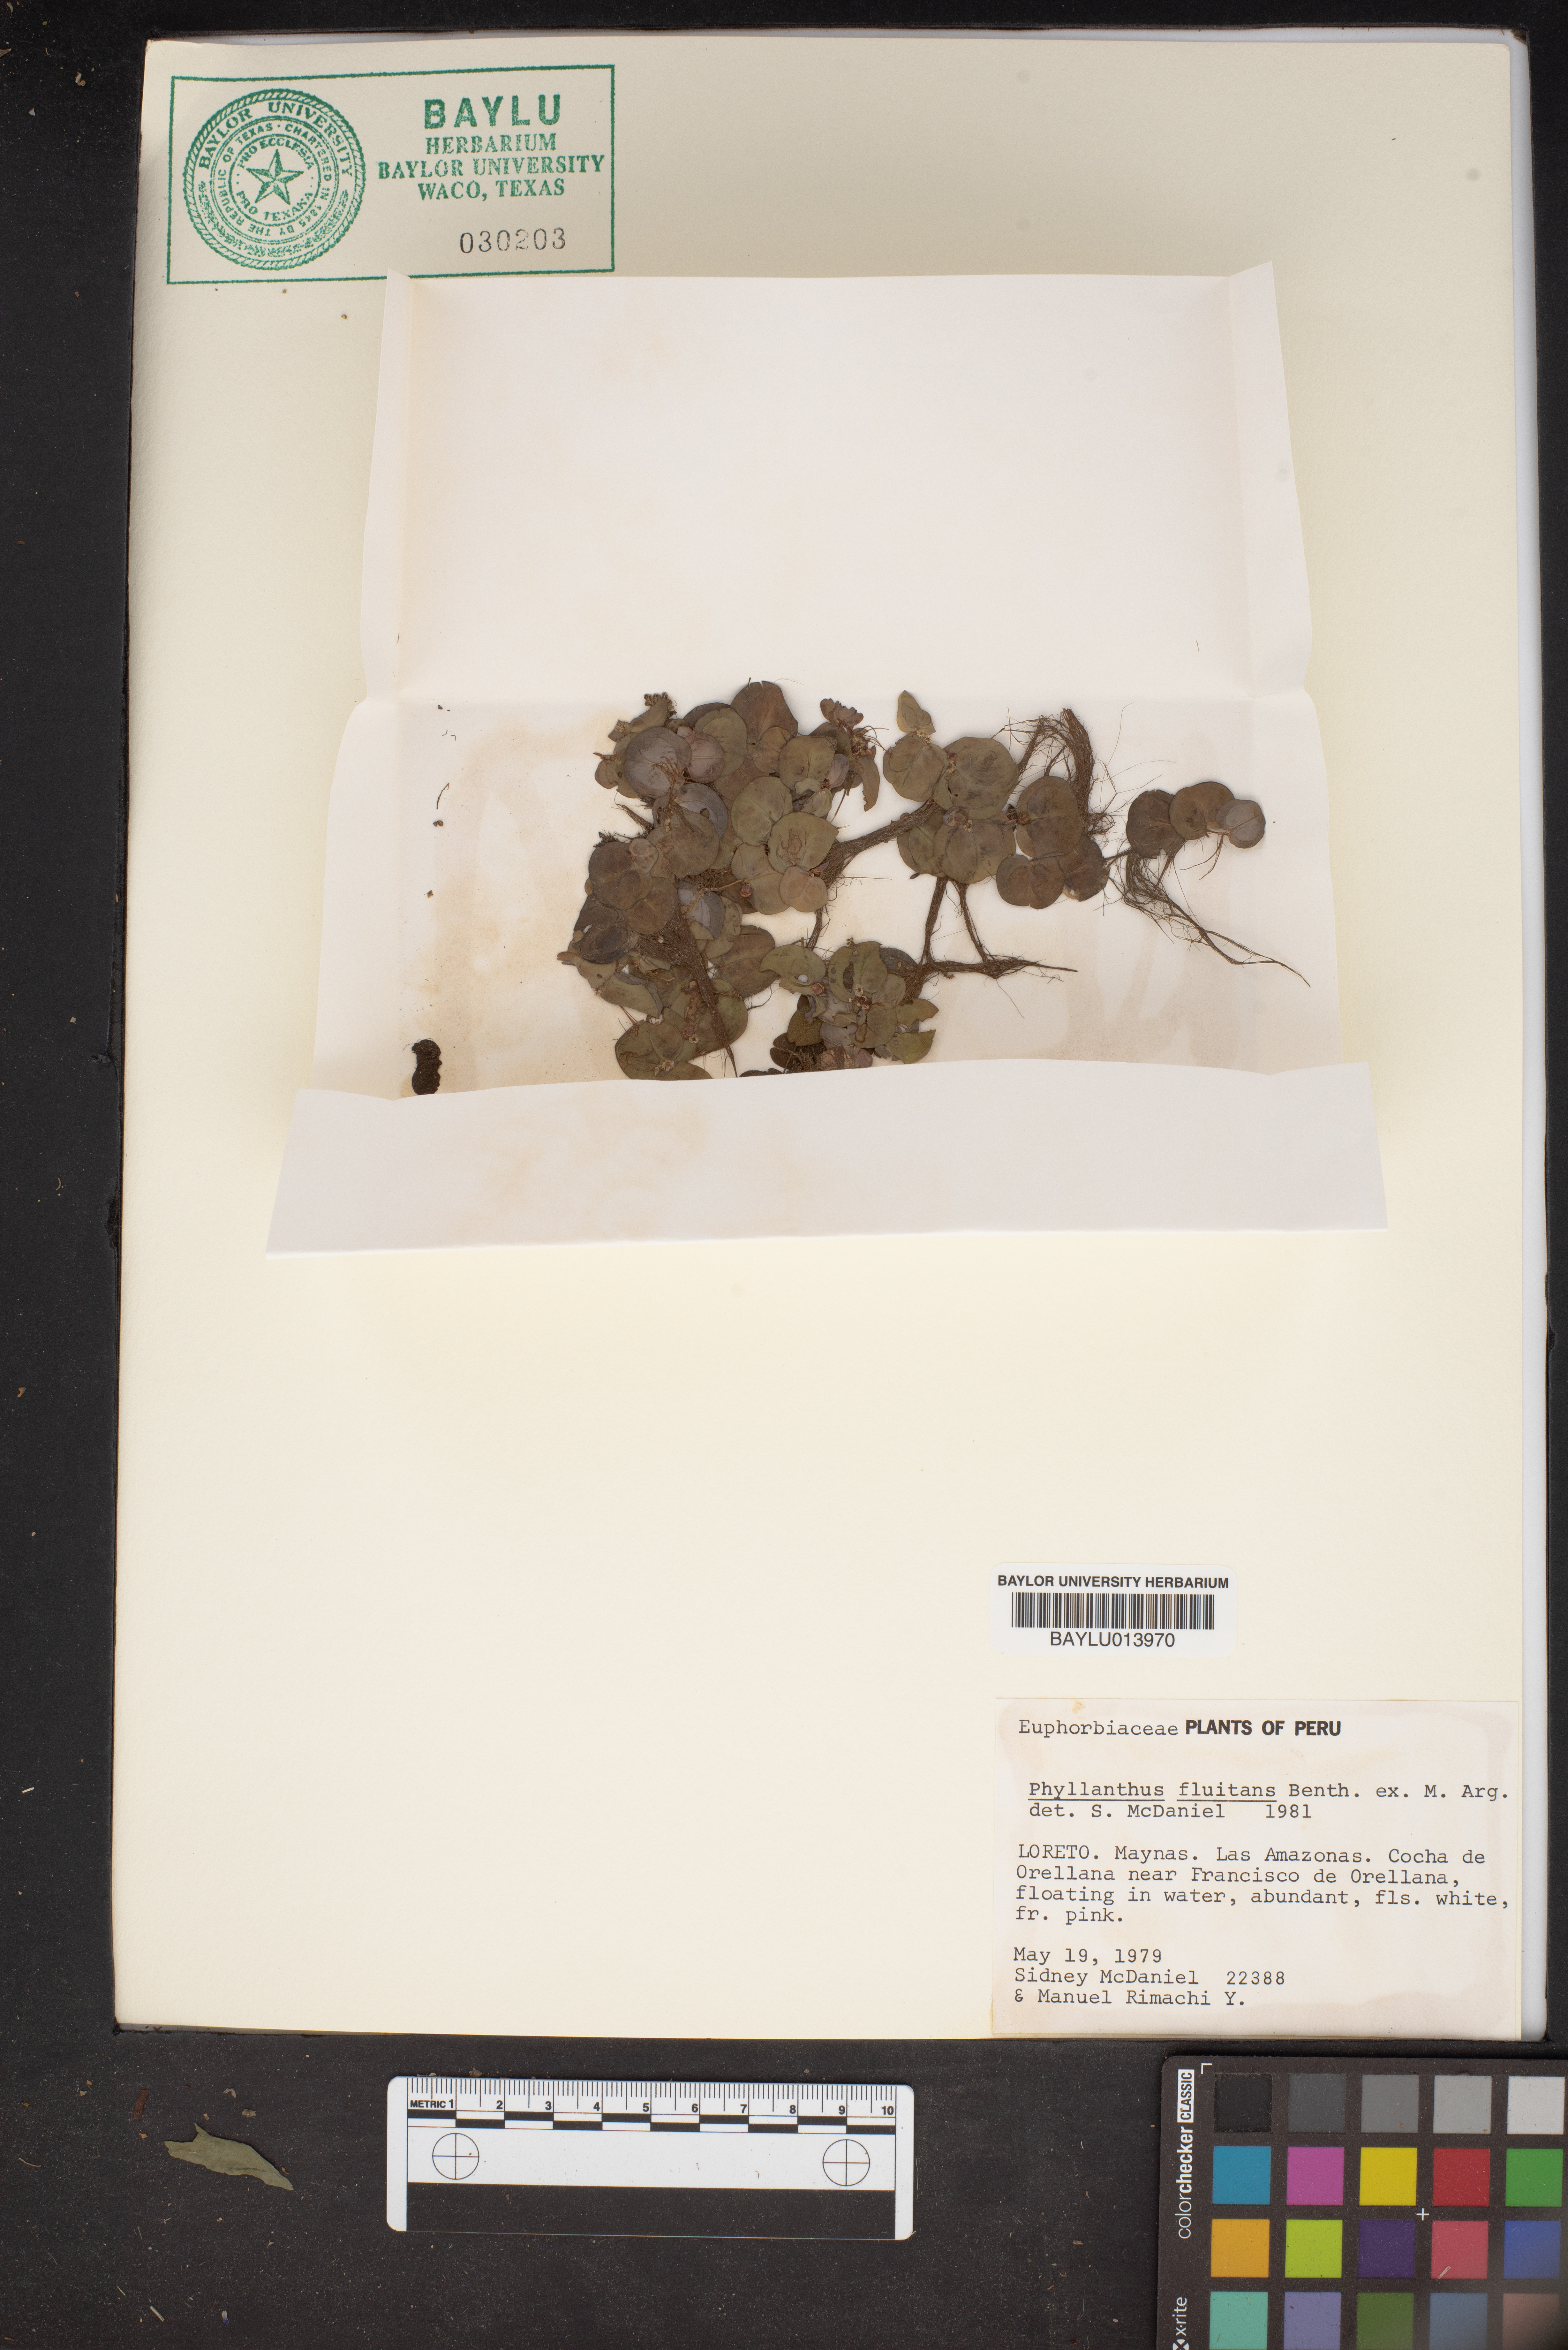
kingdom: Plantae
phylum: Tracheophyta
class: Magnoliopsida
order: Malpighiales
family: Phyllanthaceae
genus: Phyllanthus
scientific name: Phyllanthus fluitans
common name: Floating spurge
